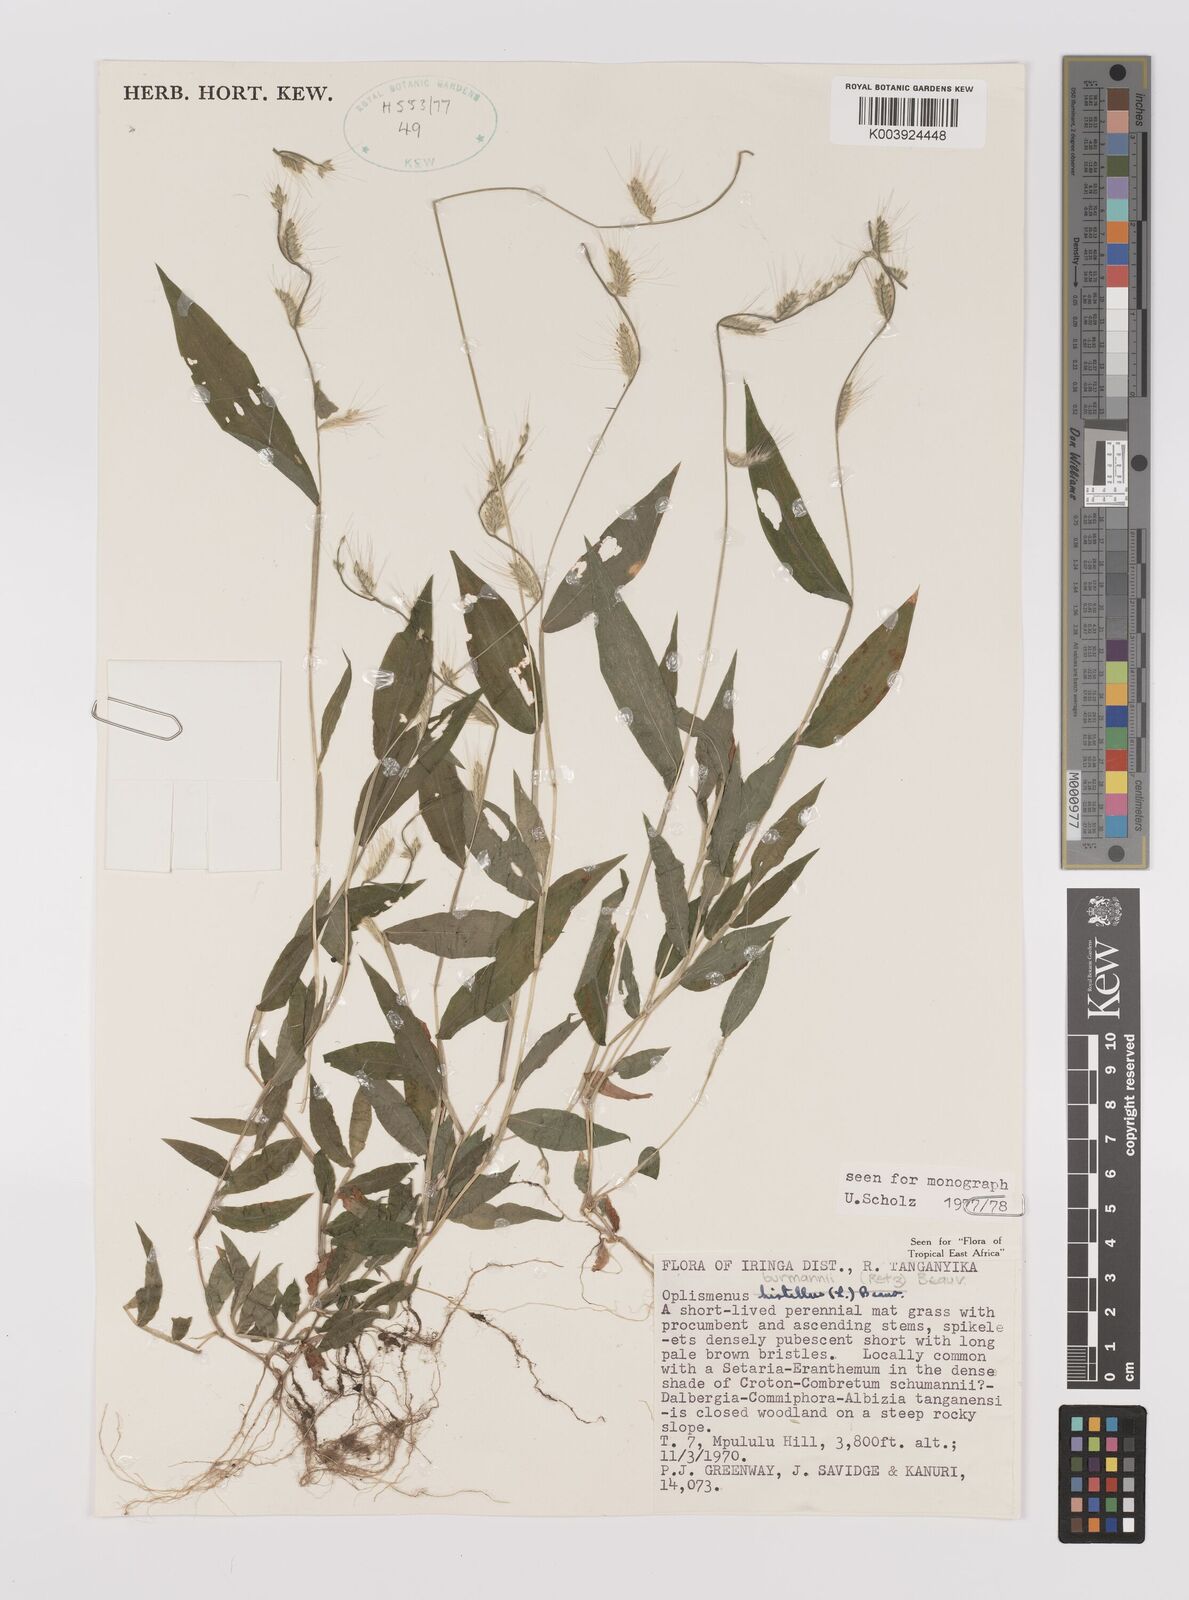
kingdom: Plantae
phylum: Tracheophyta
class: Liliopsida
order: Poales
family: Poaceae
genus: Oplismenus
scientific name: Oplismenus burmanni
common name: Burmann's basketgrass
